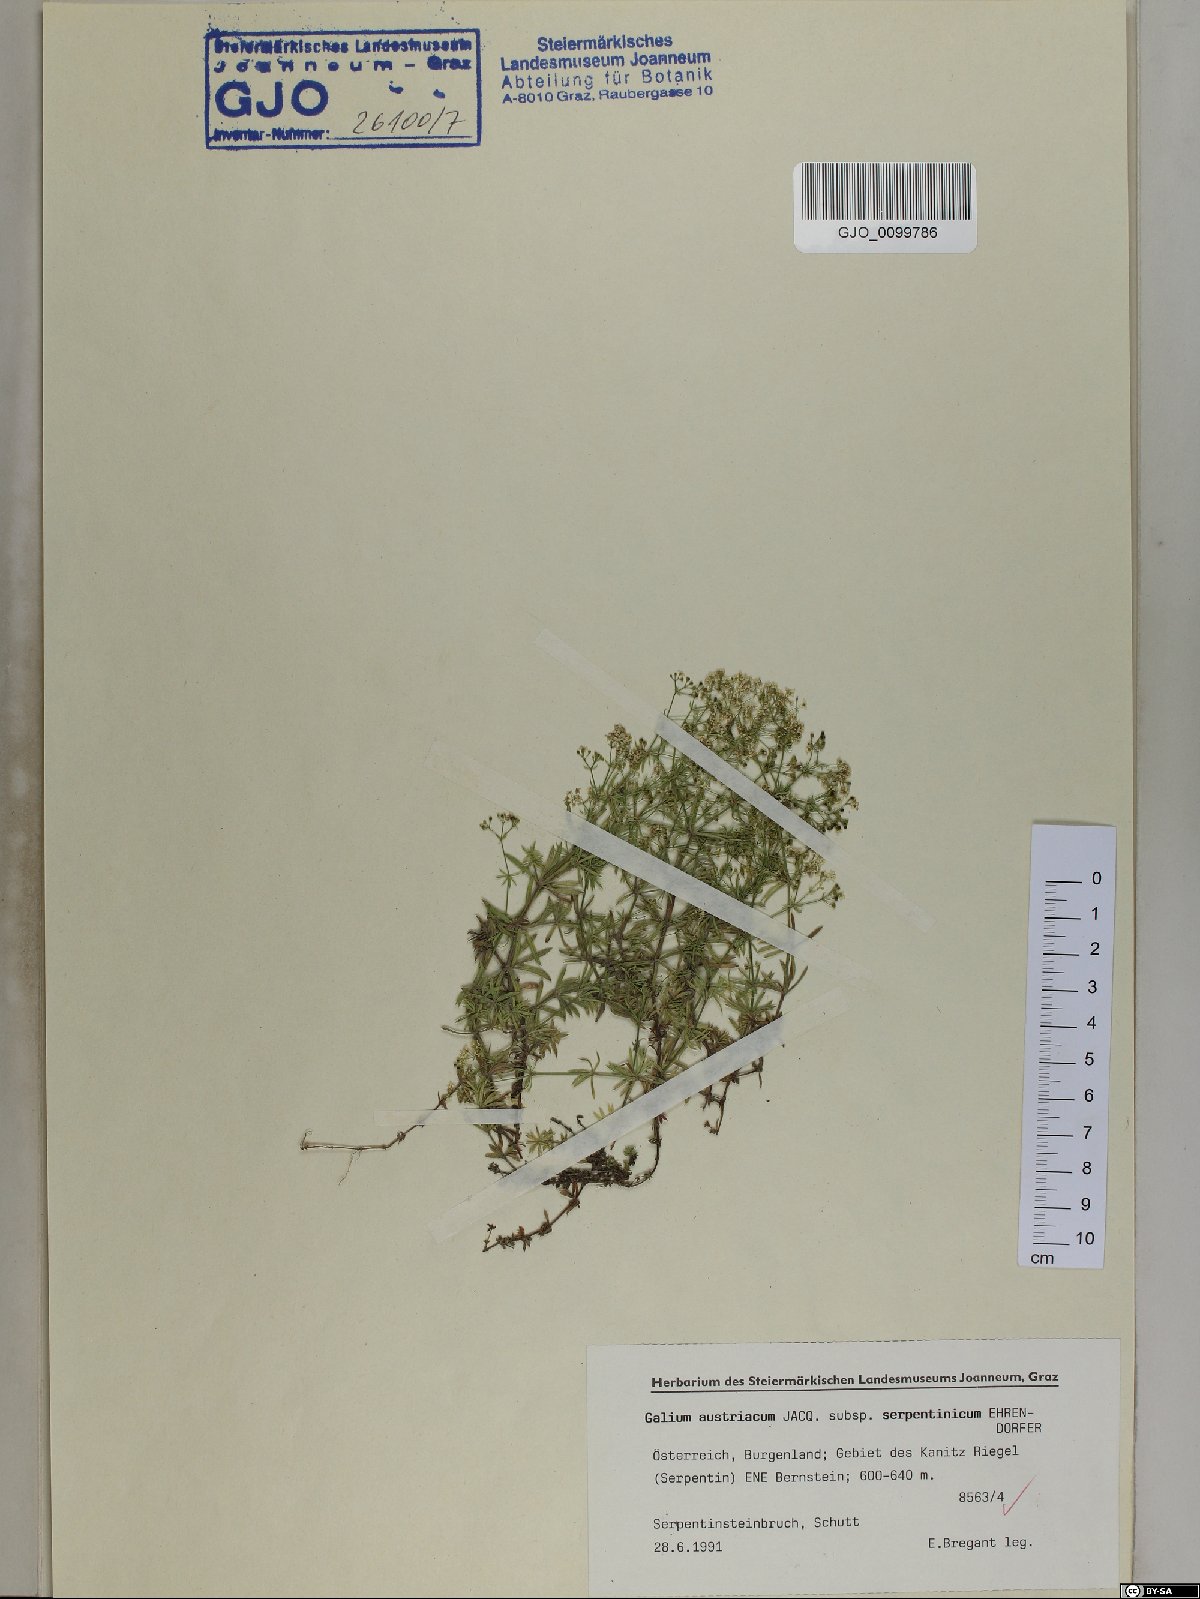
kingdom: Plantae
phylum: Tracheophyta
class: Magnoliopsida
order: Gentianales
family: Rubiaceae
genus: Galium
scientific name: Galium austriacum
